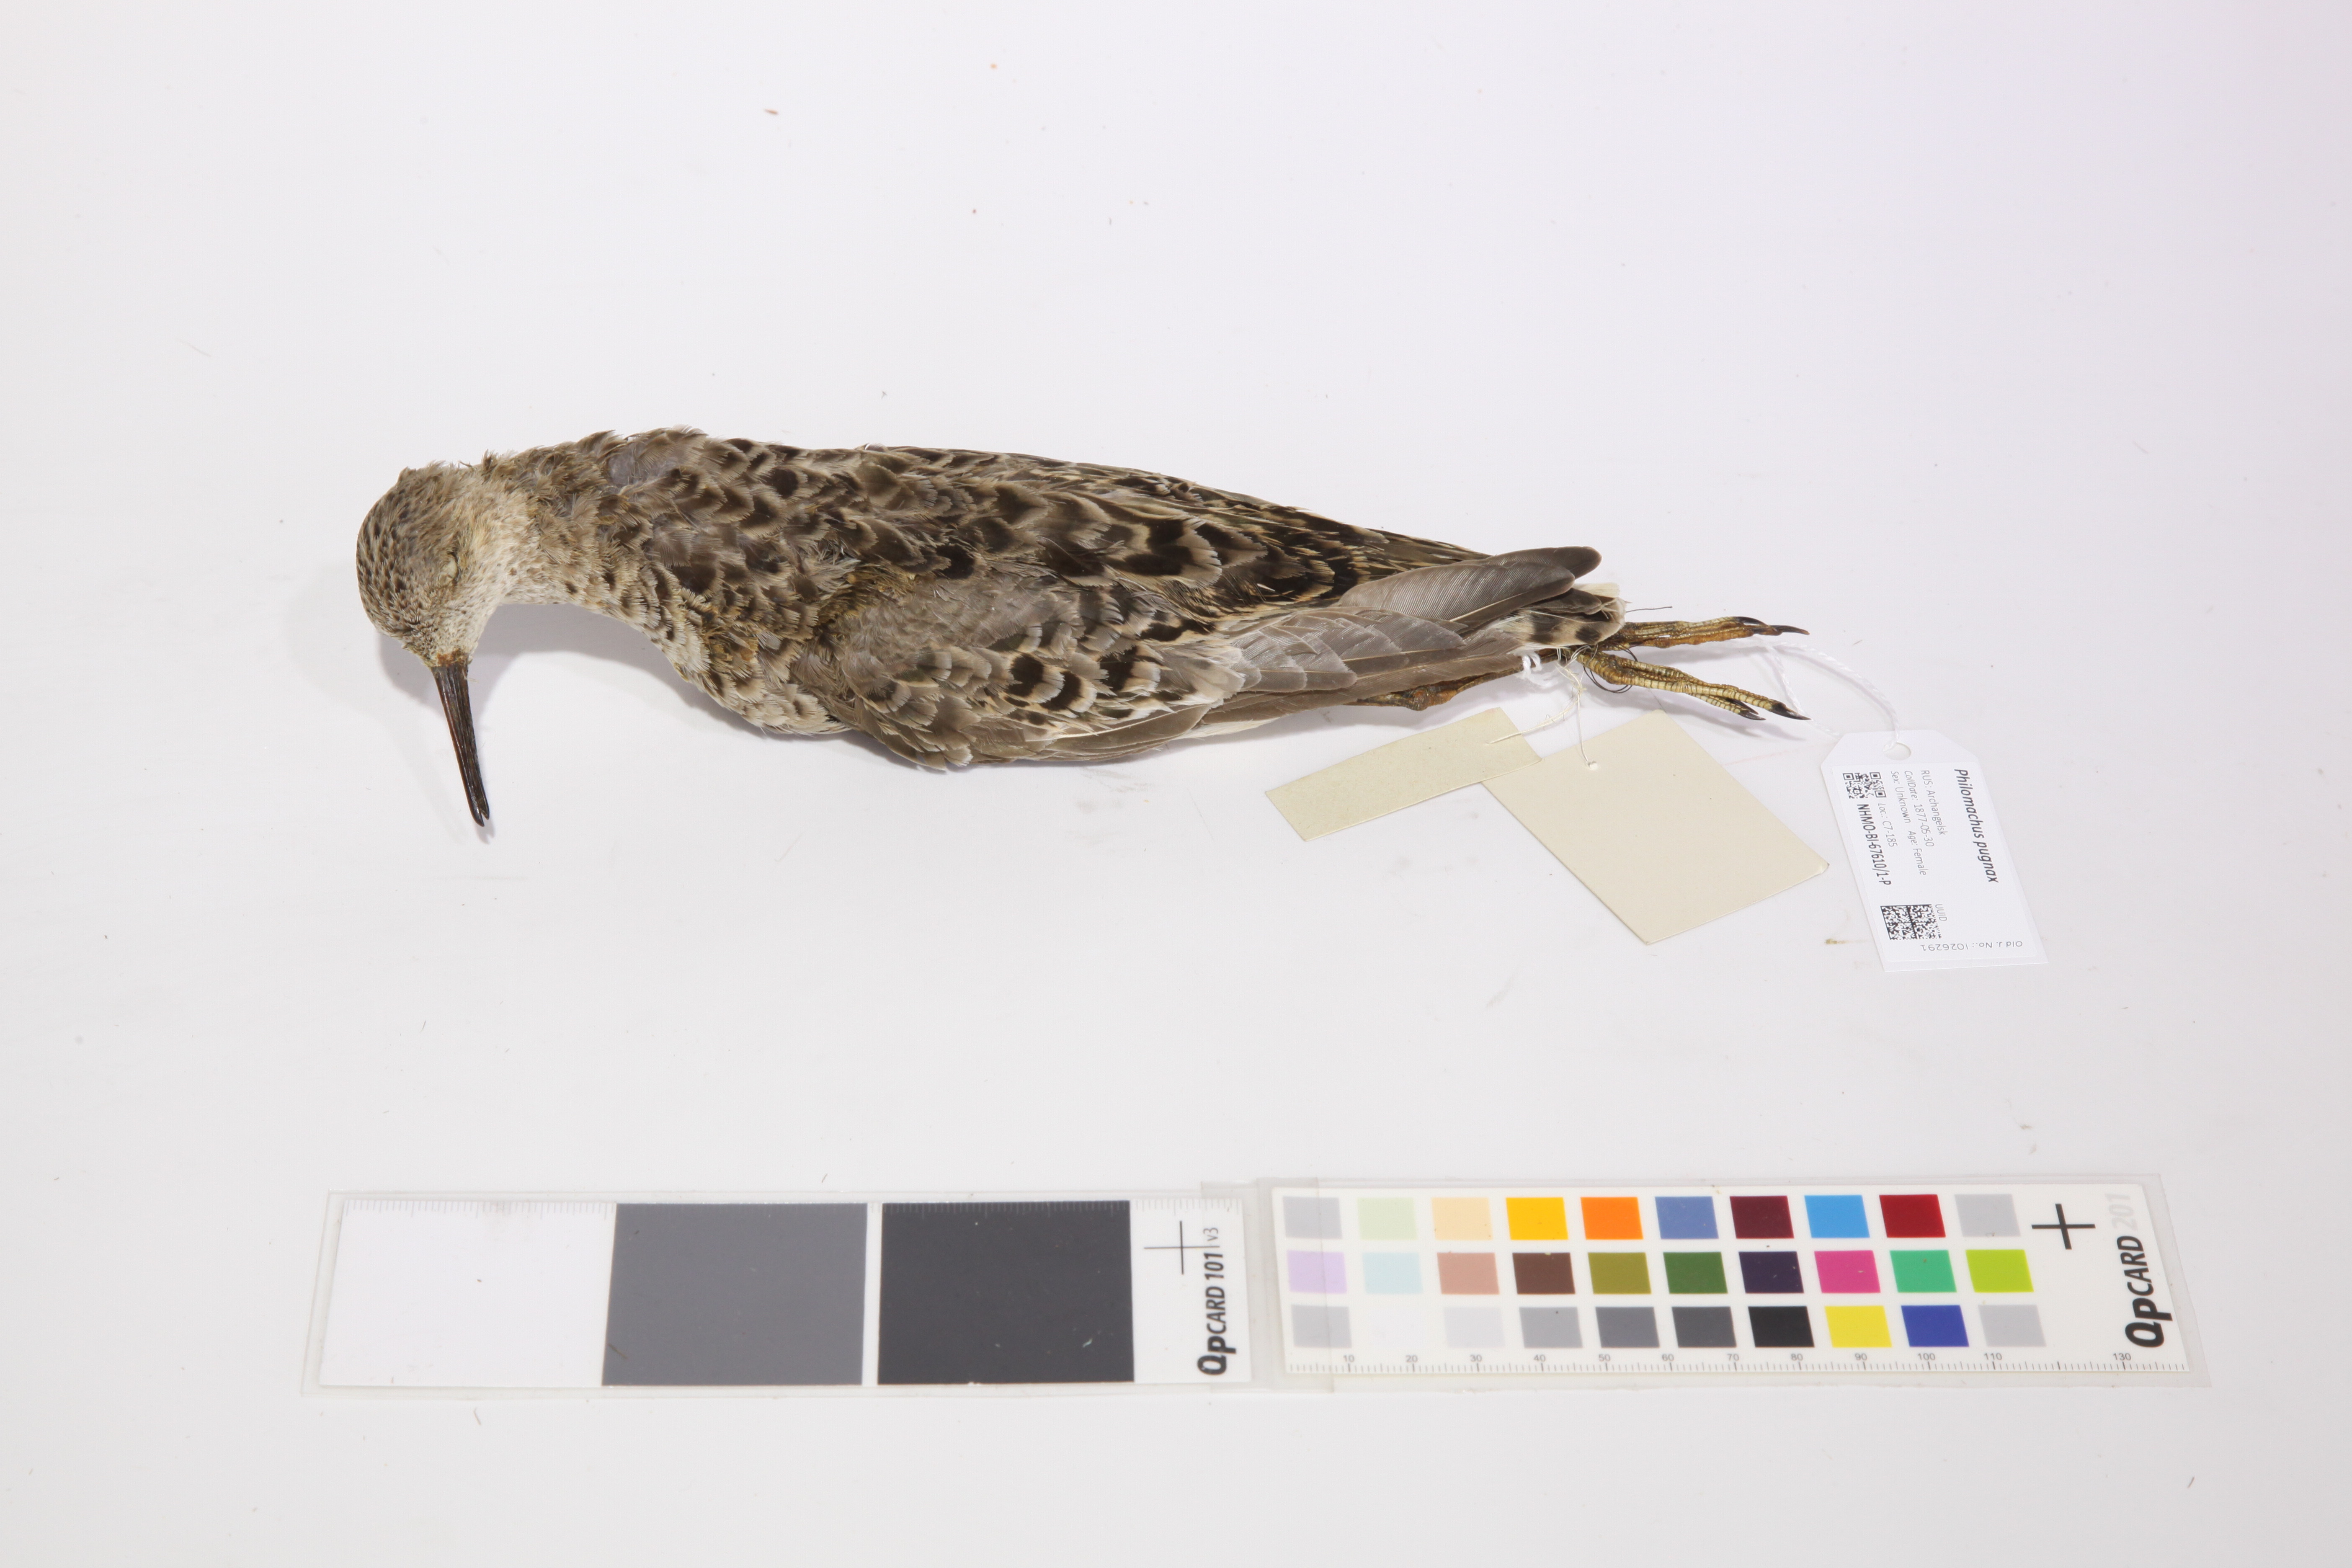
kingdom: Animalia
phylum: Chordata
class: Aves
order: Charadriiformes
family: Scolopacidae
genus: Calidris
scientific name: Calidris pugnax
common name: Ruff
